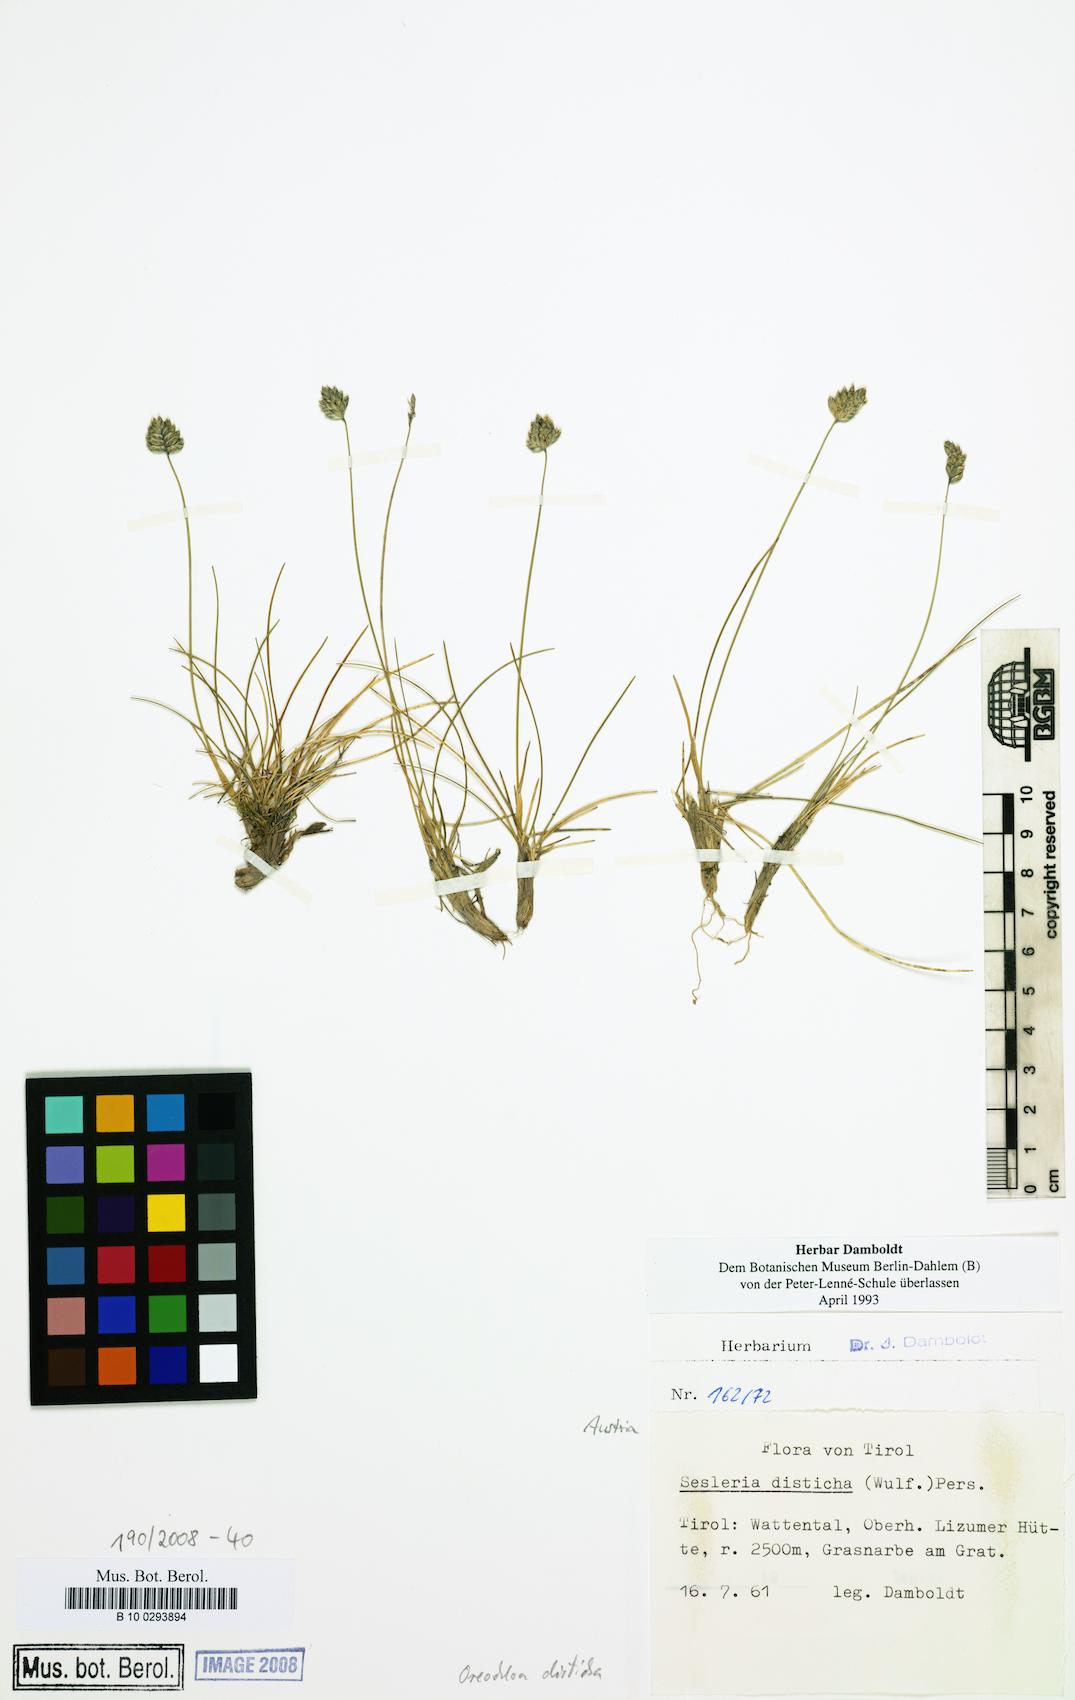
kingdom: Plantae
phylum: Tracheophyta
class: Liliopsida
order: Poales
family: Poaceae
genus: Oreochloa
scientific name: Oreochloa disticha
